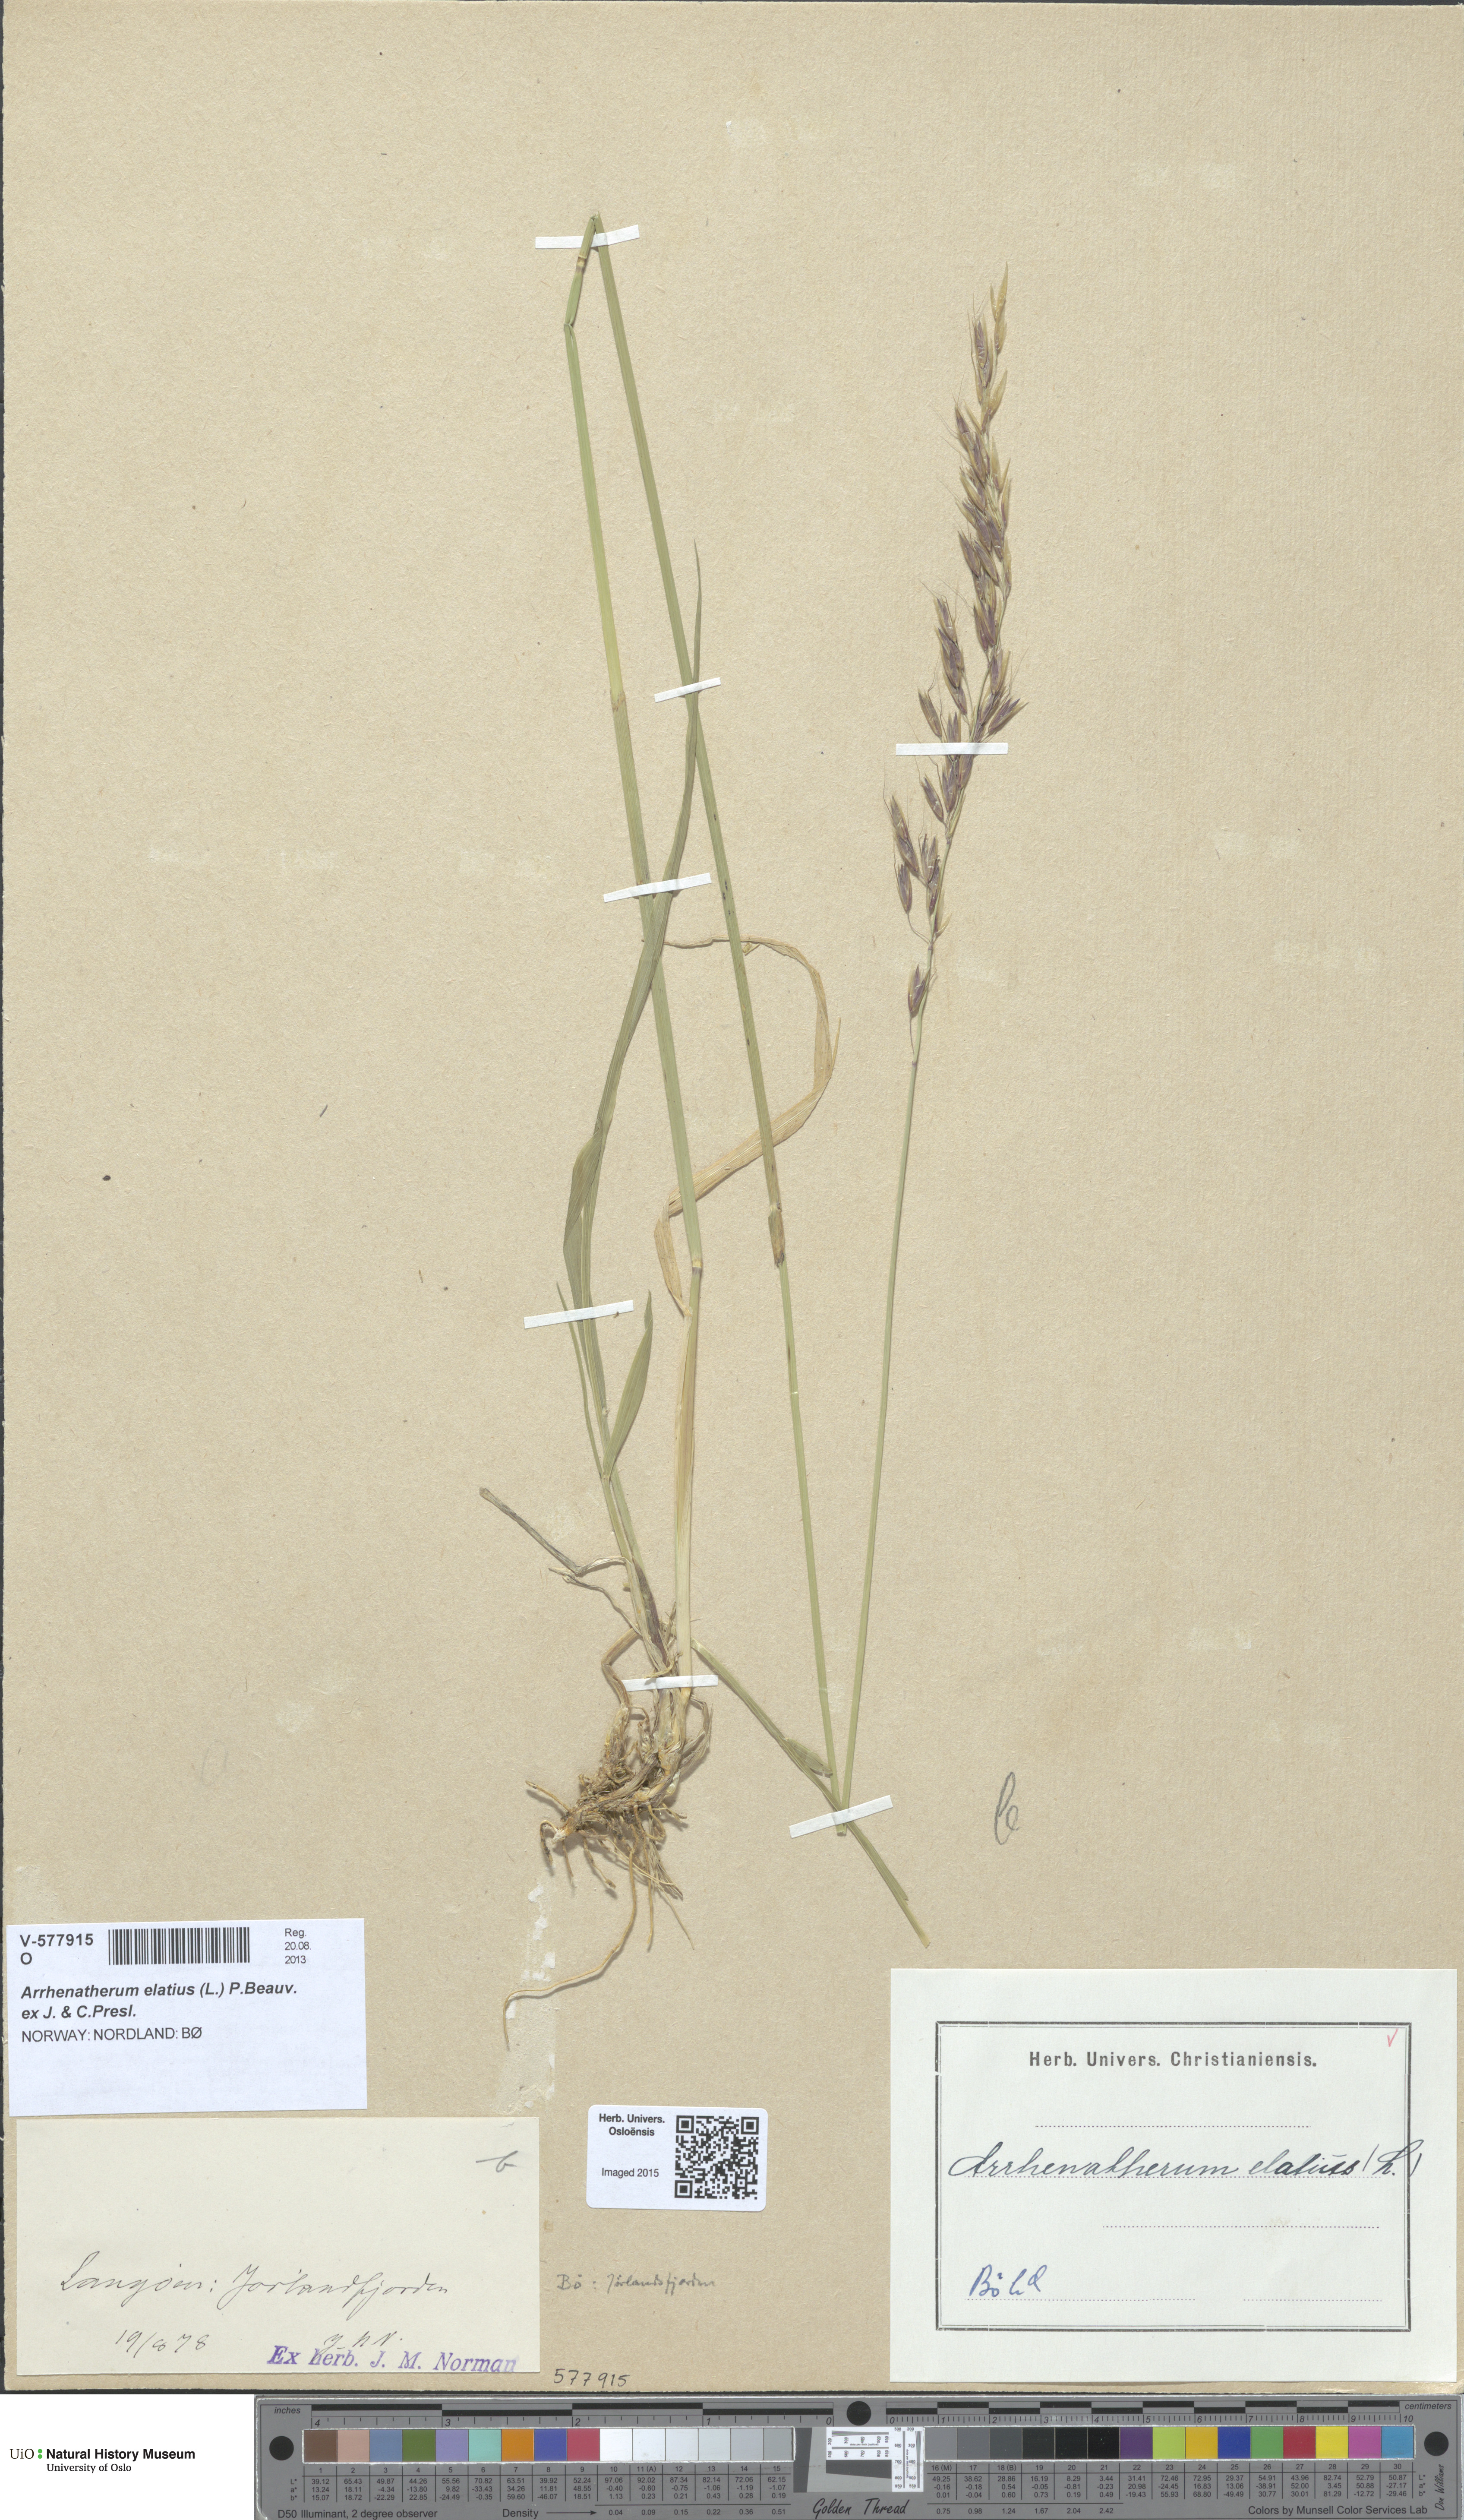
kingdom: Plantae
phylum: Tracheophyta
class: Liliopsida
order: Poales
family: Poaceae
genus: Arrhenatherum
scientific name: Arrhenatherum elatius
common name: Tall oatgrass
